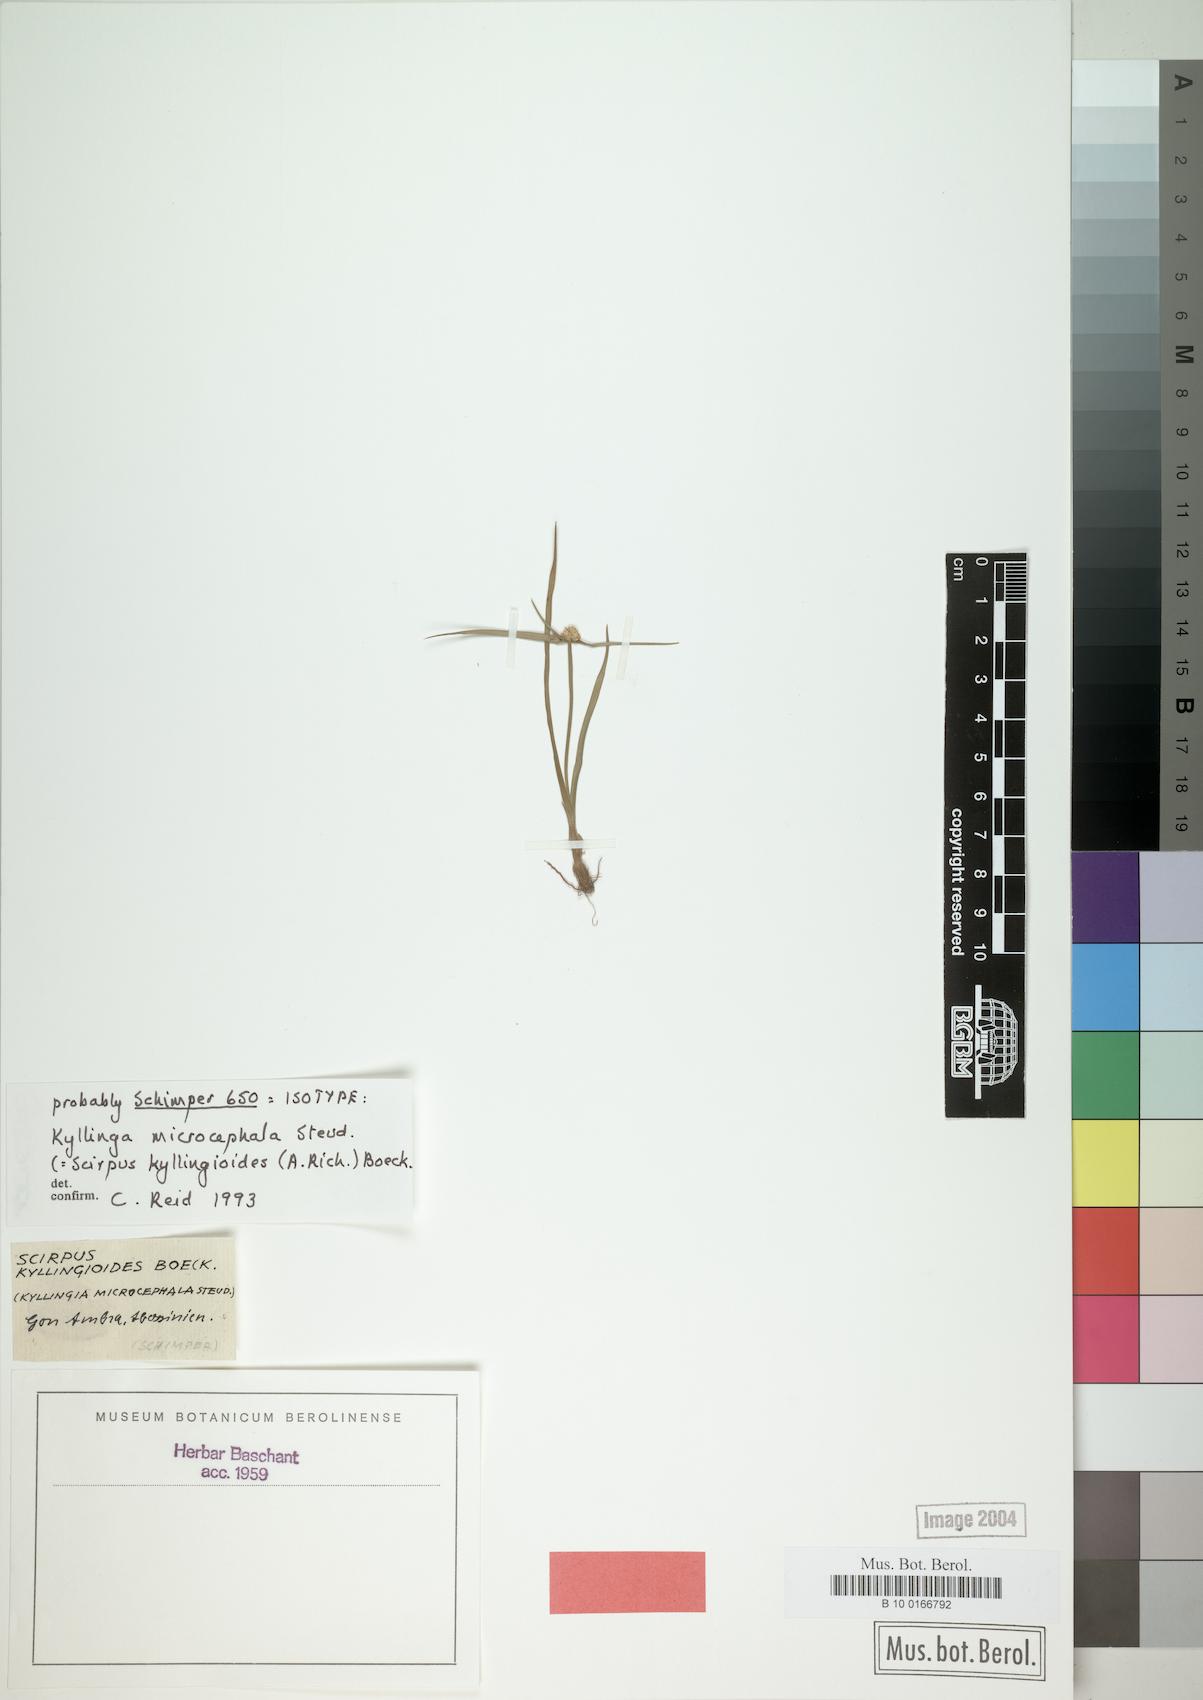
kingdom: Plantae
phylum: Tracheophyta
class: Liliopsida
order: Poales
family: Cyperaceae
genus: Cyperus
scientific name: Cyperus kyllingiella
